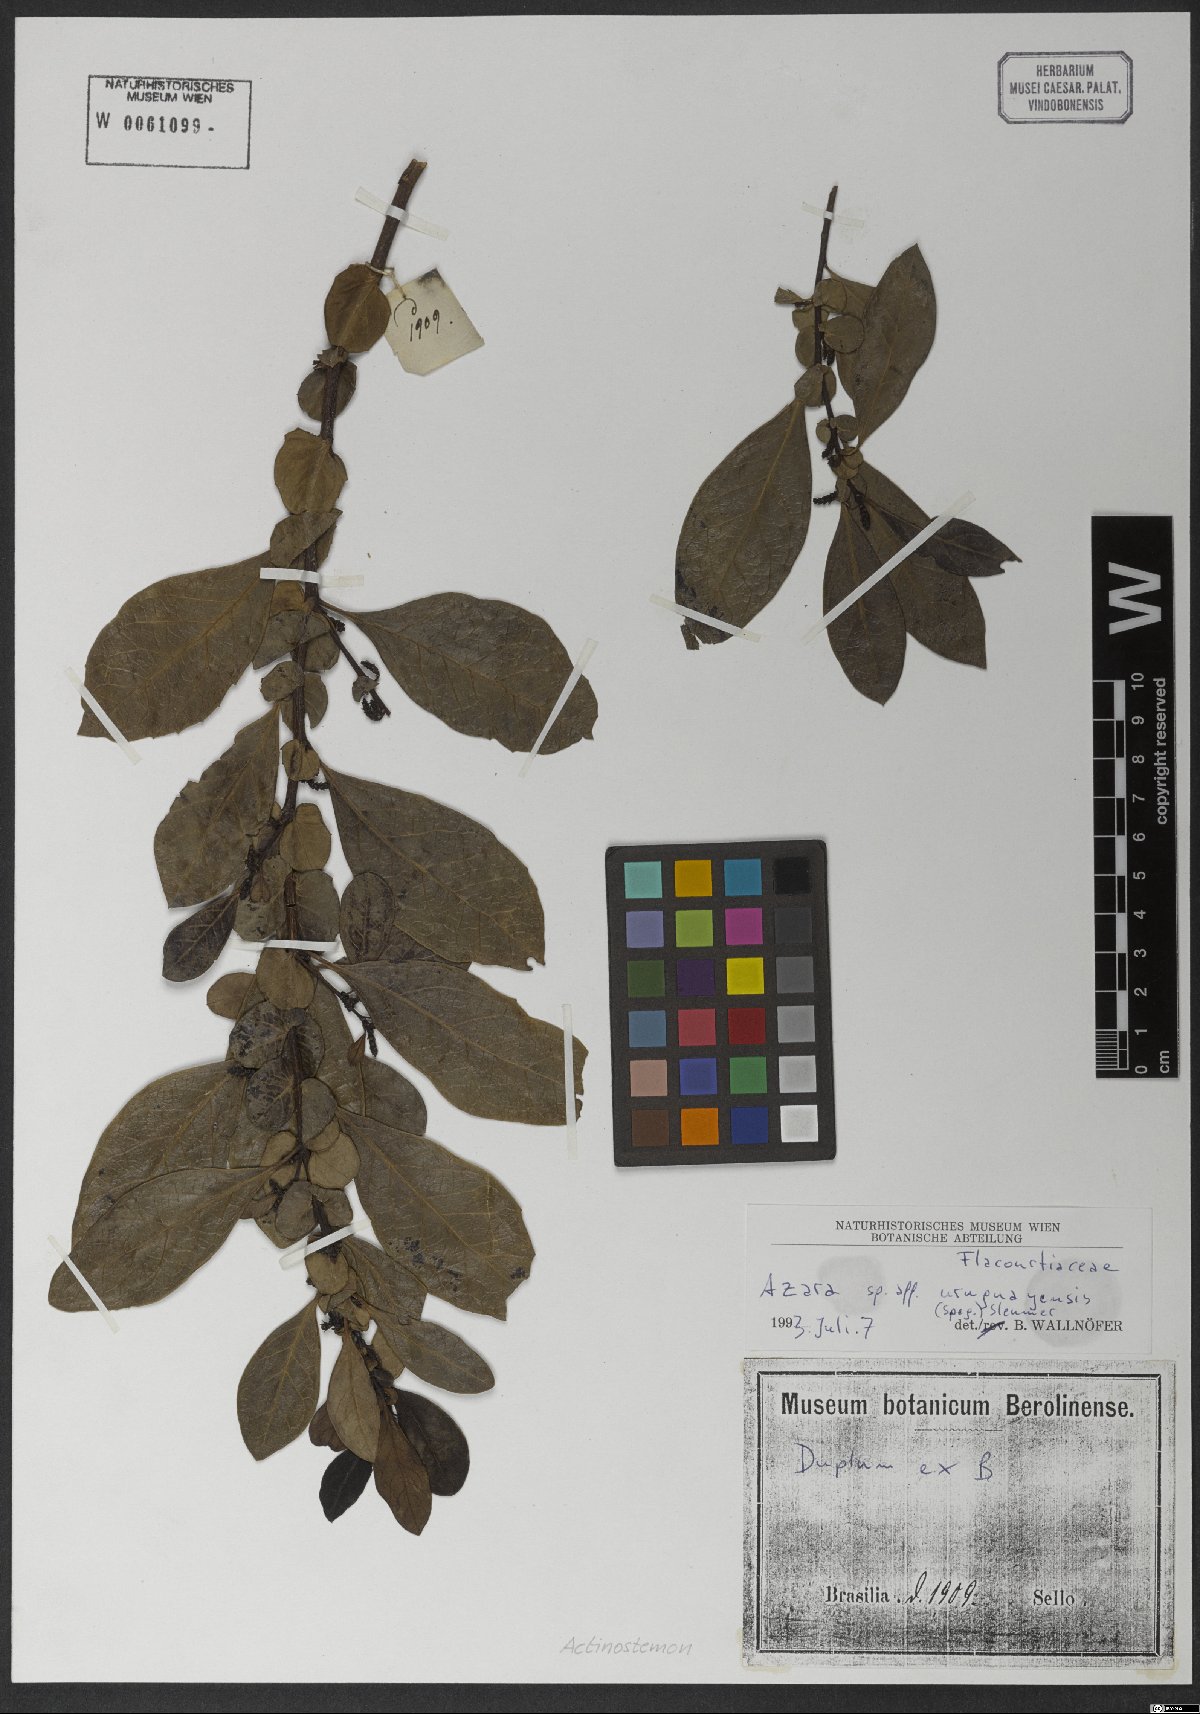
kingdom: Plantae
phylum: Tracheophyta
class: Magnoliopsida
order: Malpighiales
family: Salicaceae
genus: Azara
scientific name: Azara uruguayensis
